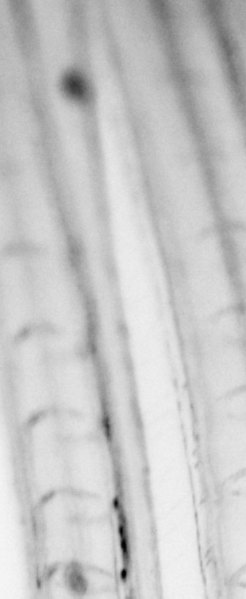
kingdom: Animalia
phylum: Chordata
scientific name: Chordata
